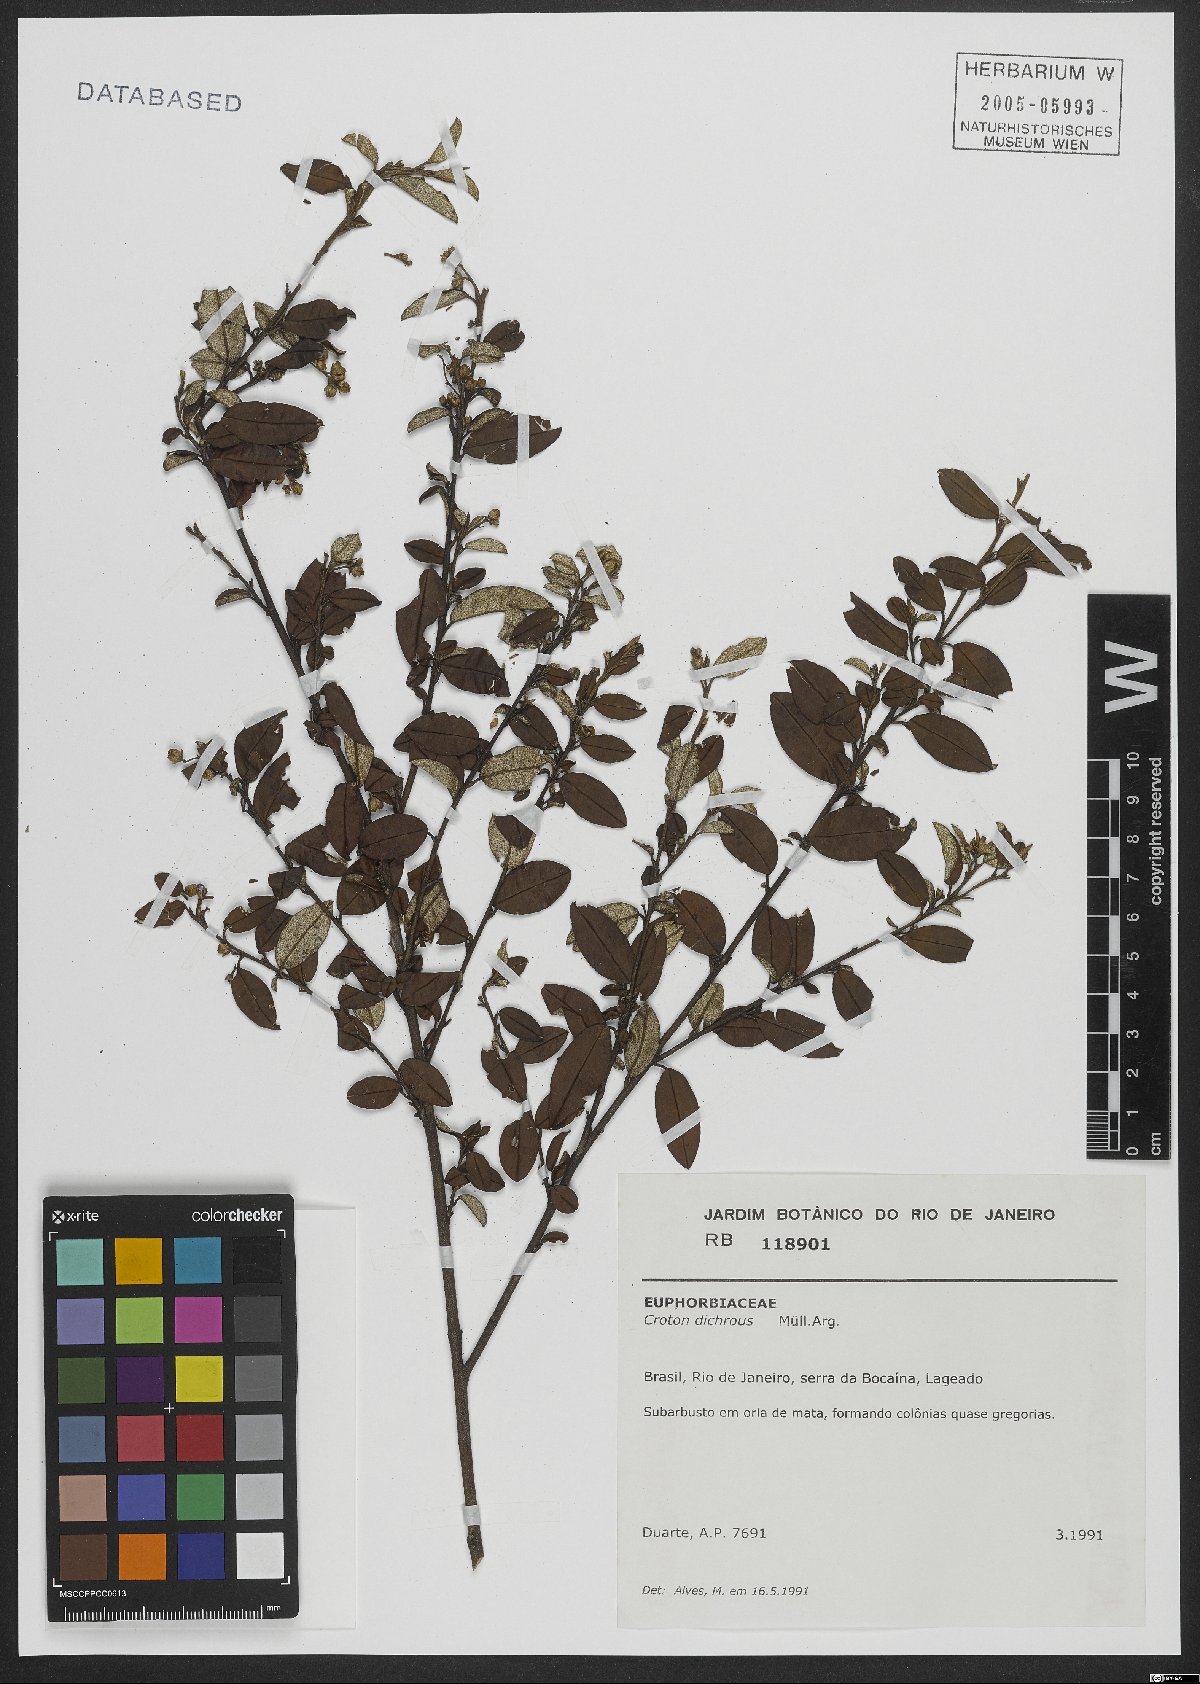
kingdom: Plantae
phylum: Tracheophyta
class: Magnoliopsida
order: Malpighiales
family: Euphorbiaceae
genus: Croton
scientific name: Croton dichrous
